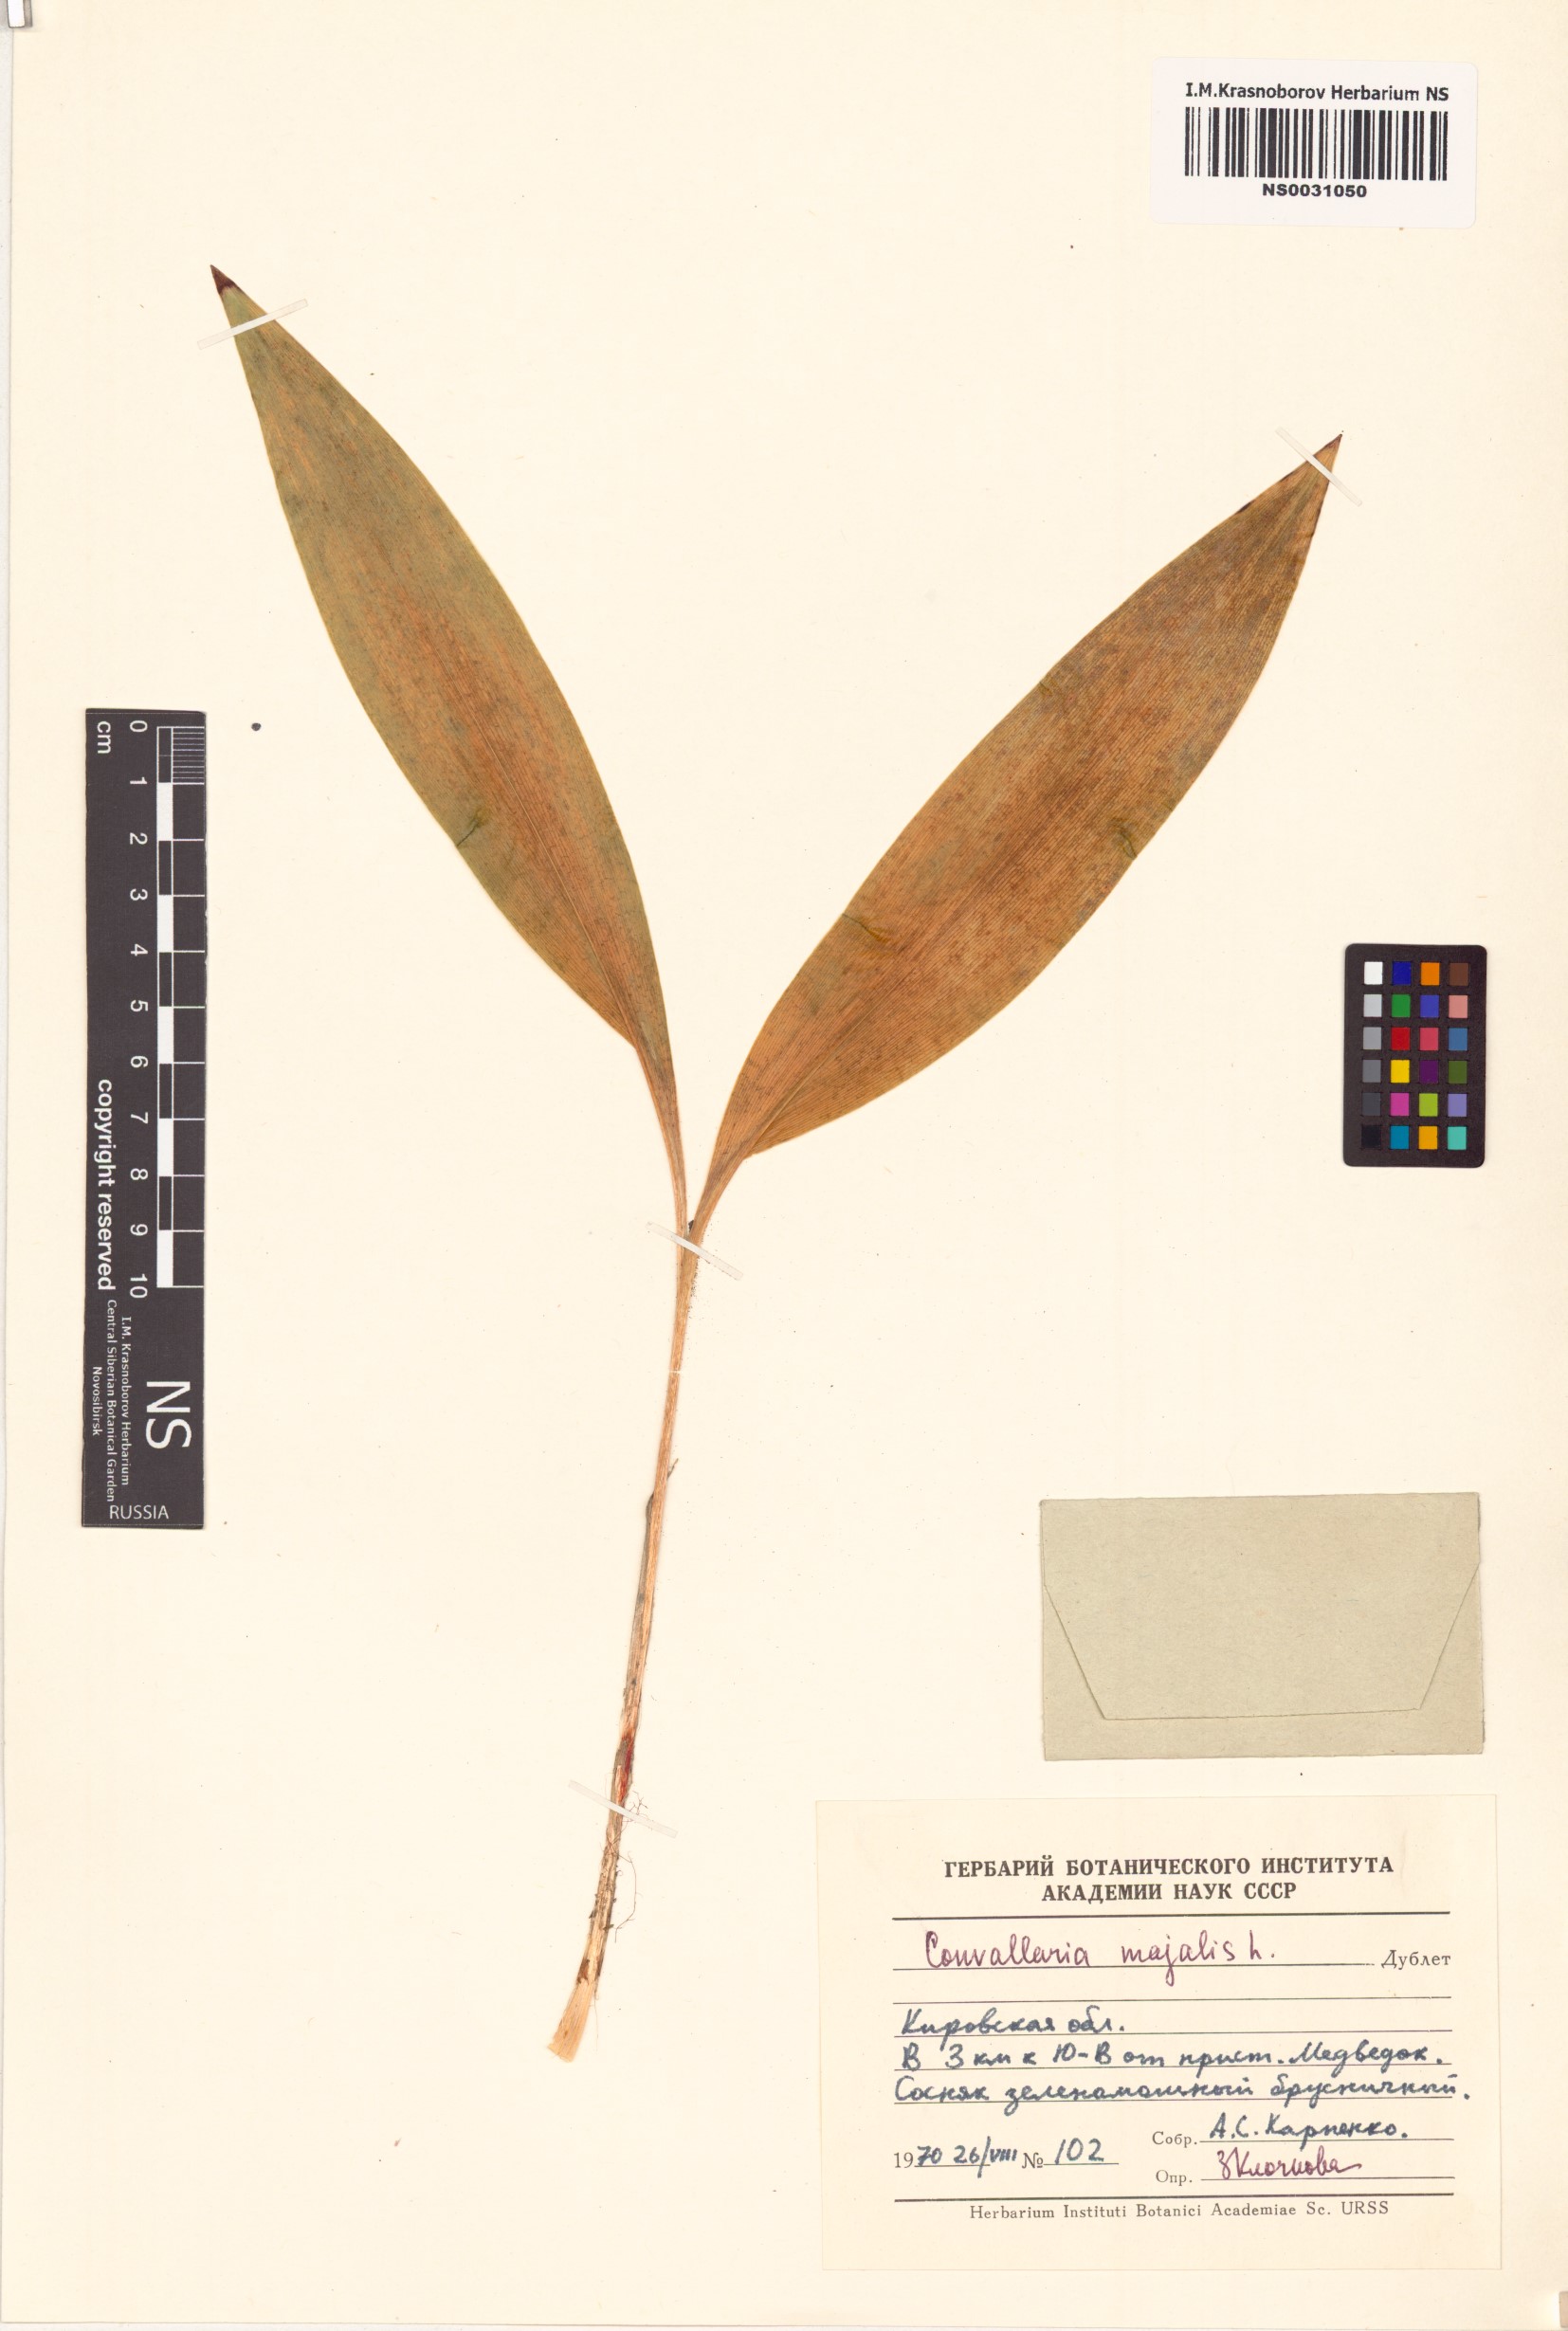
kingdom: Plantae
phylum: Tracheophyta
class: Liliopsida
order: Asparagales
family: Asparagaceae
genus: Convallaria
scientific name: Convallaria majalis
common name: Lily-of-the-valley
